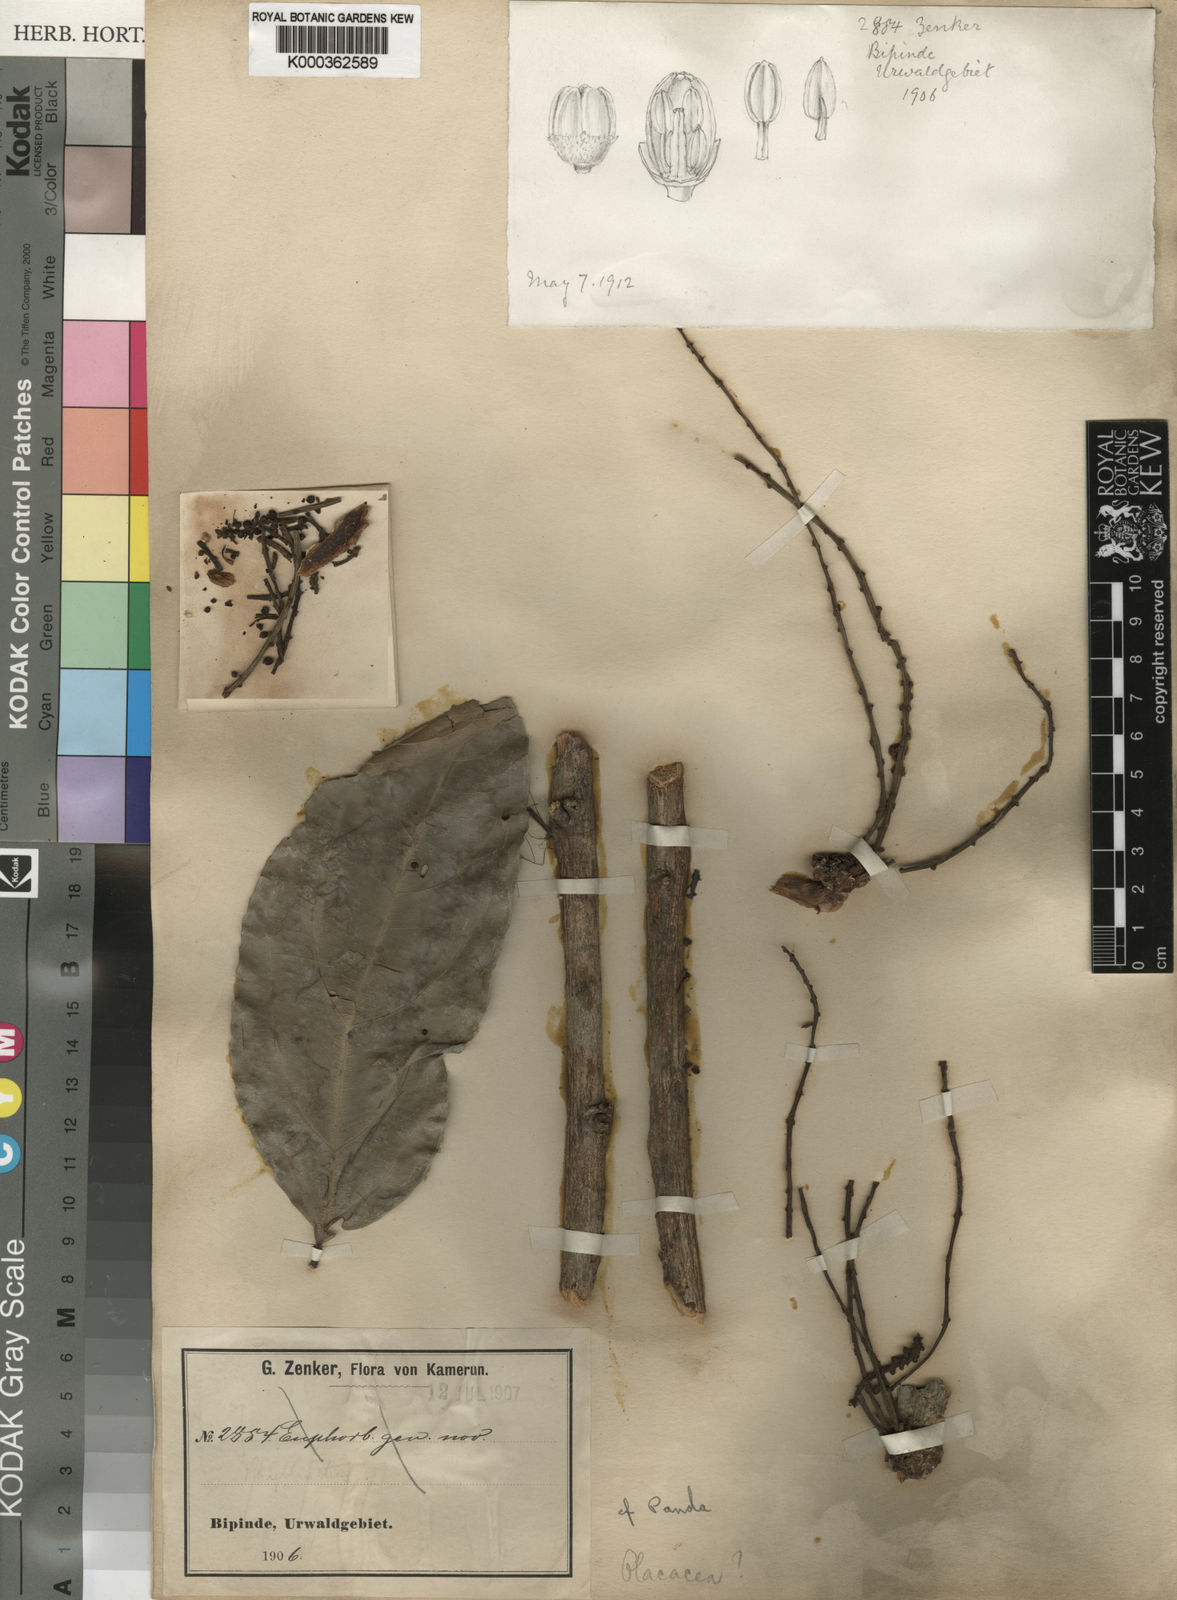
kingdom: Plantae
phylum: Tracheophyta
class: Magnoliopsida
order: Malpighiales
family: Pandaceae
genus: Microdesmis
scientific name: Microdesmis
